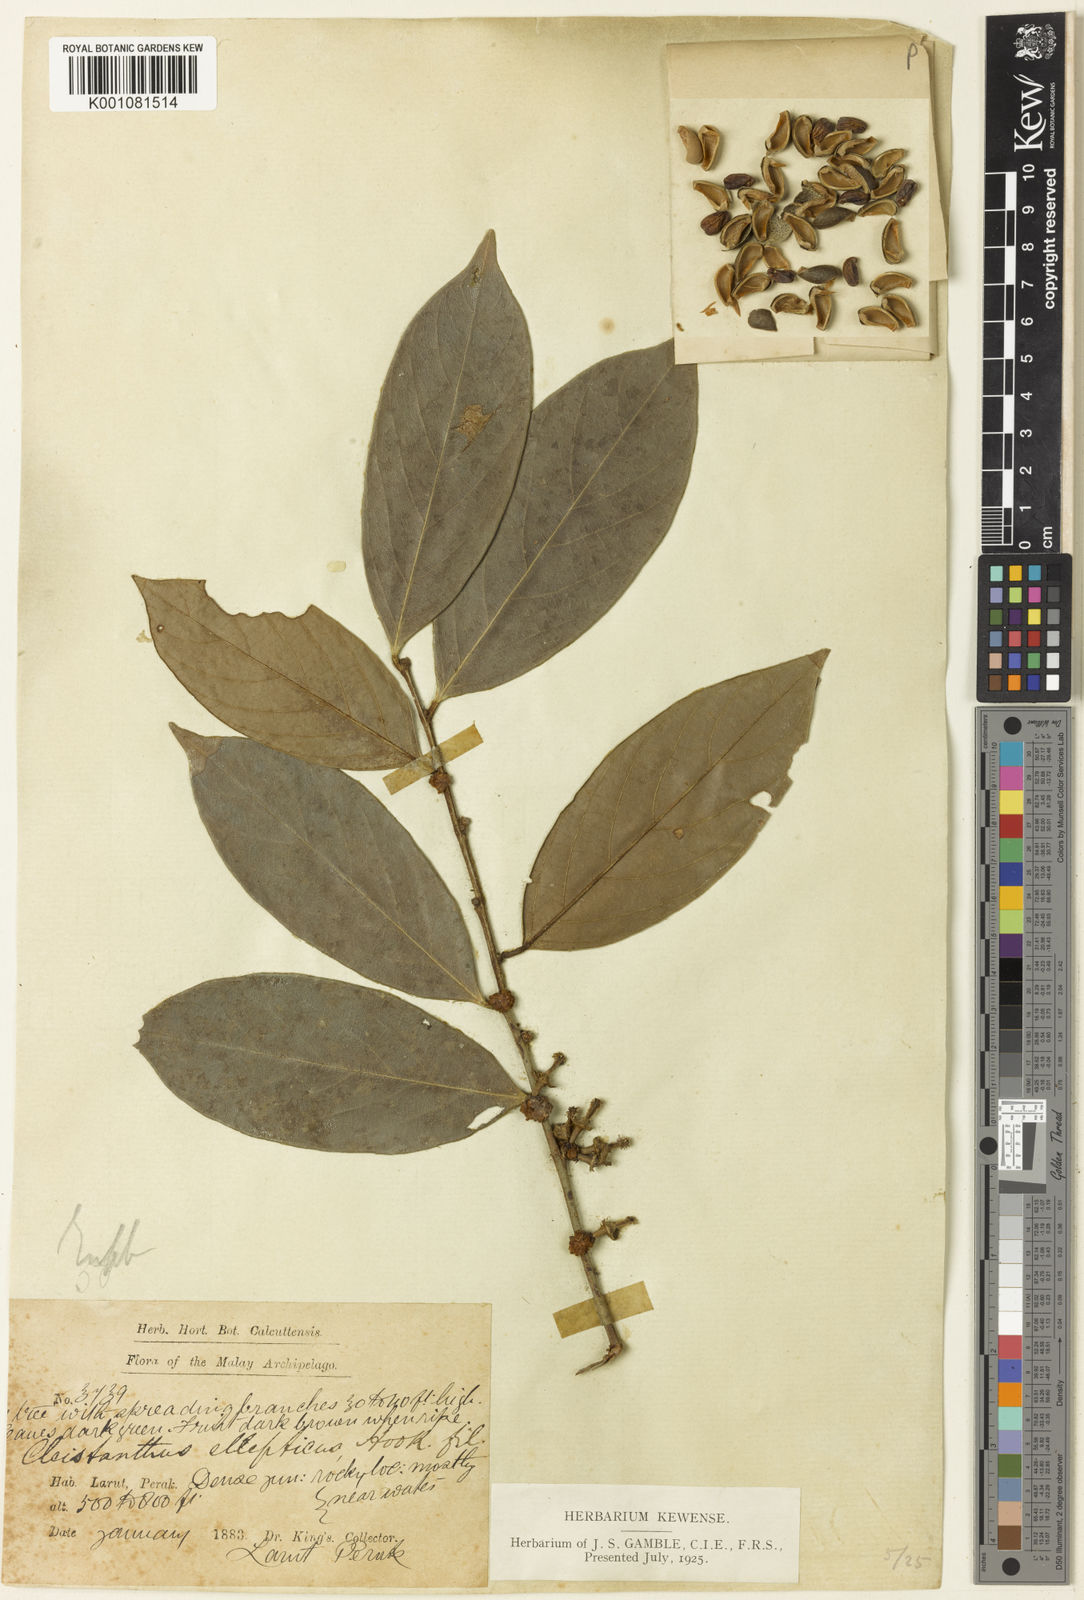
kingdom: Plantae
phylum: Tracheophyta
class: Magnoliopsida
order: Malpighiales
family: Phyllanthaceae
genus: Cleistanthus
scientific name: Cleistanthus ellipticus
